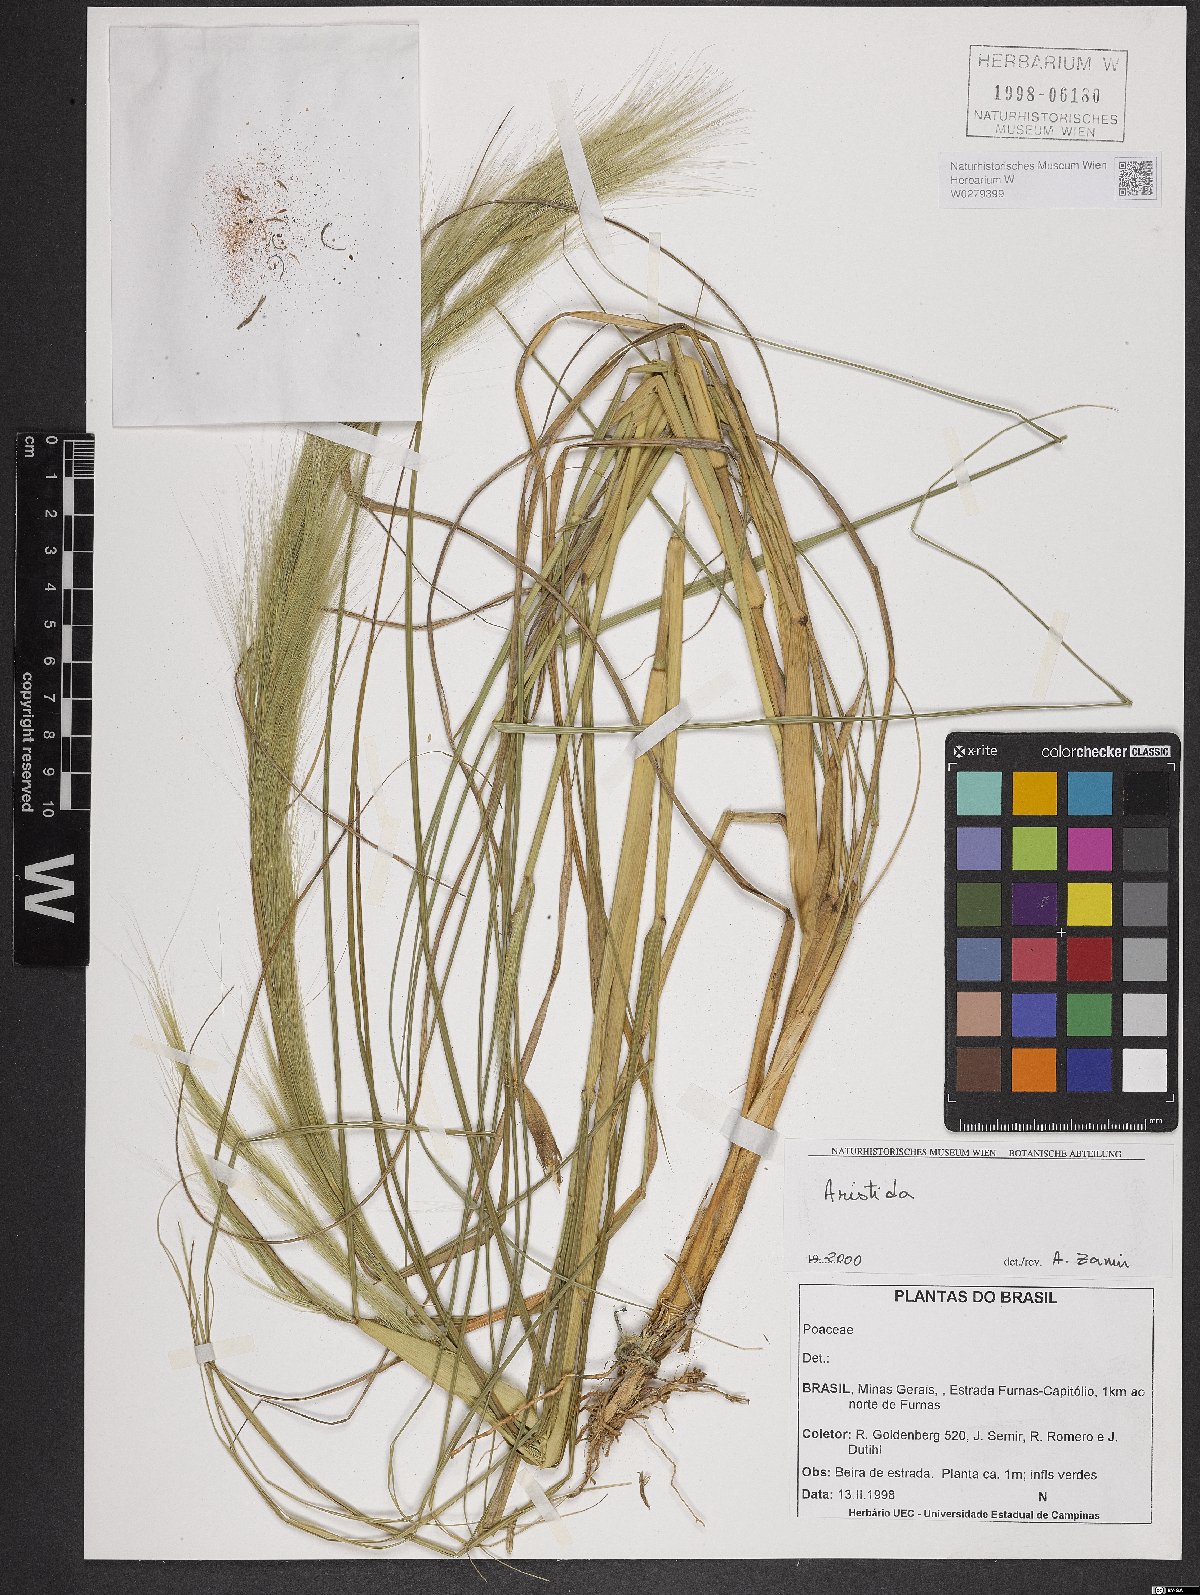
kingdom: Plantae
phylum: Tracheophyta
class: Liliopsida
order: Poales
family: Poaceae
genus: Aristida
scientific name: Aristida
